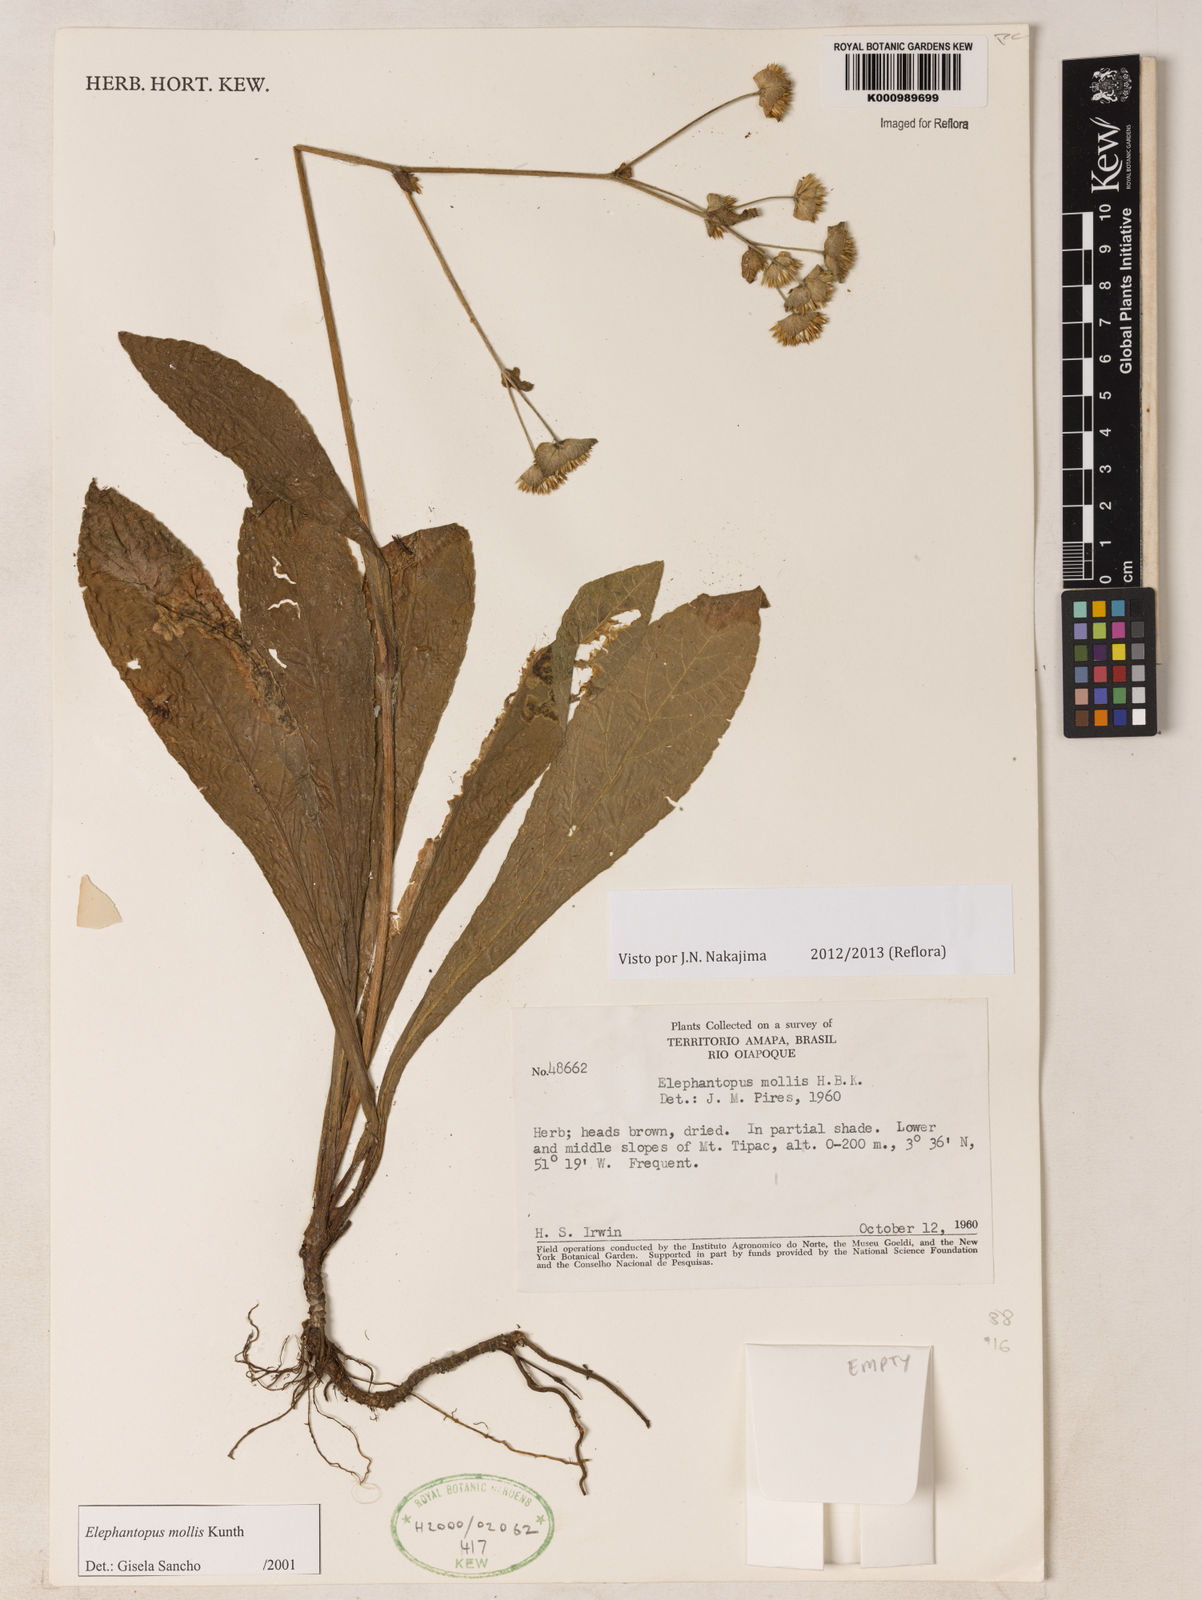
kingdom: Plantae
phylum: Tracheophyta
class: Magnoliopsida
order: Asterales
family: Asteraceae
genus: Elephantopus
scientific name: Elephantopus mollis
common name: Soft elephantsfoot
